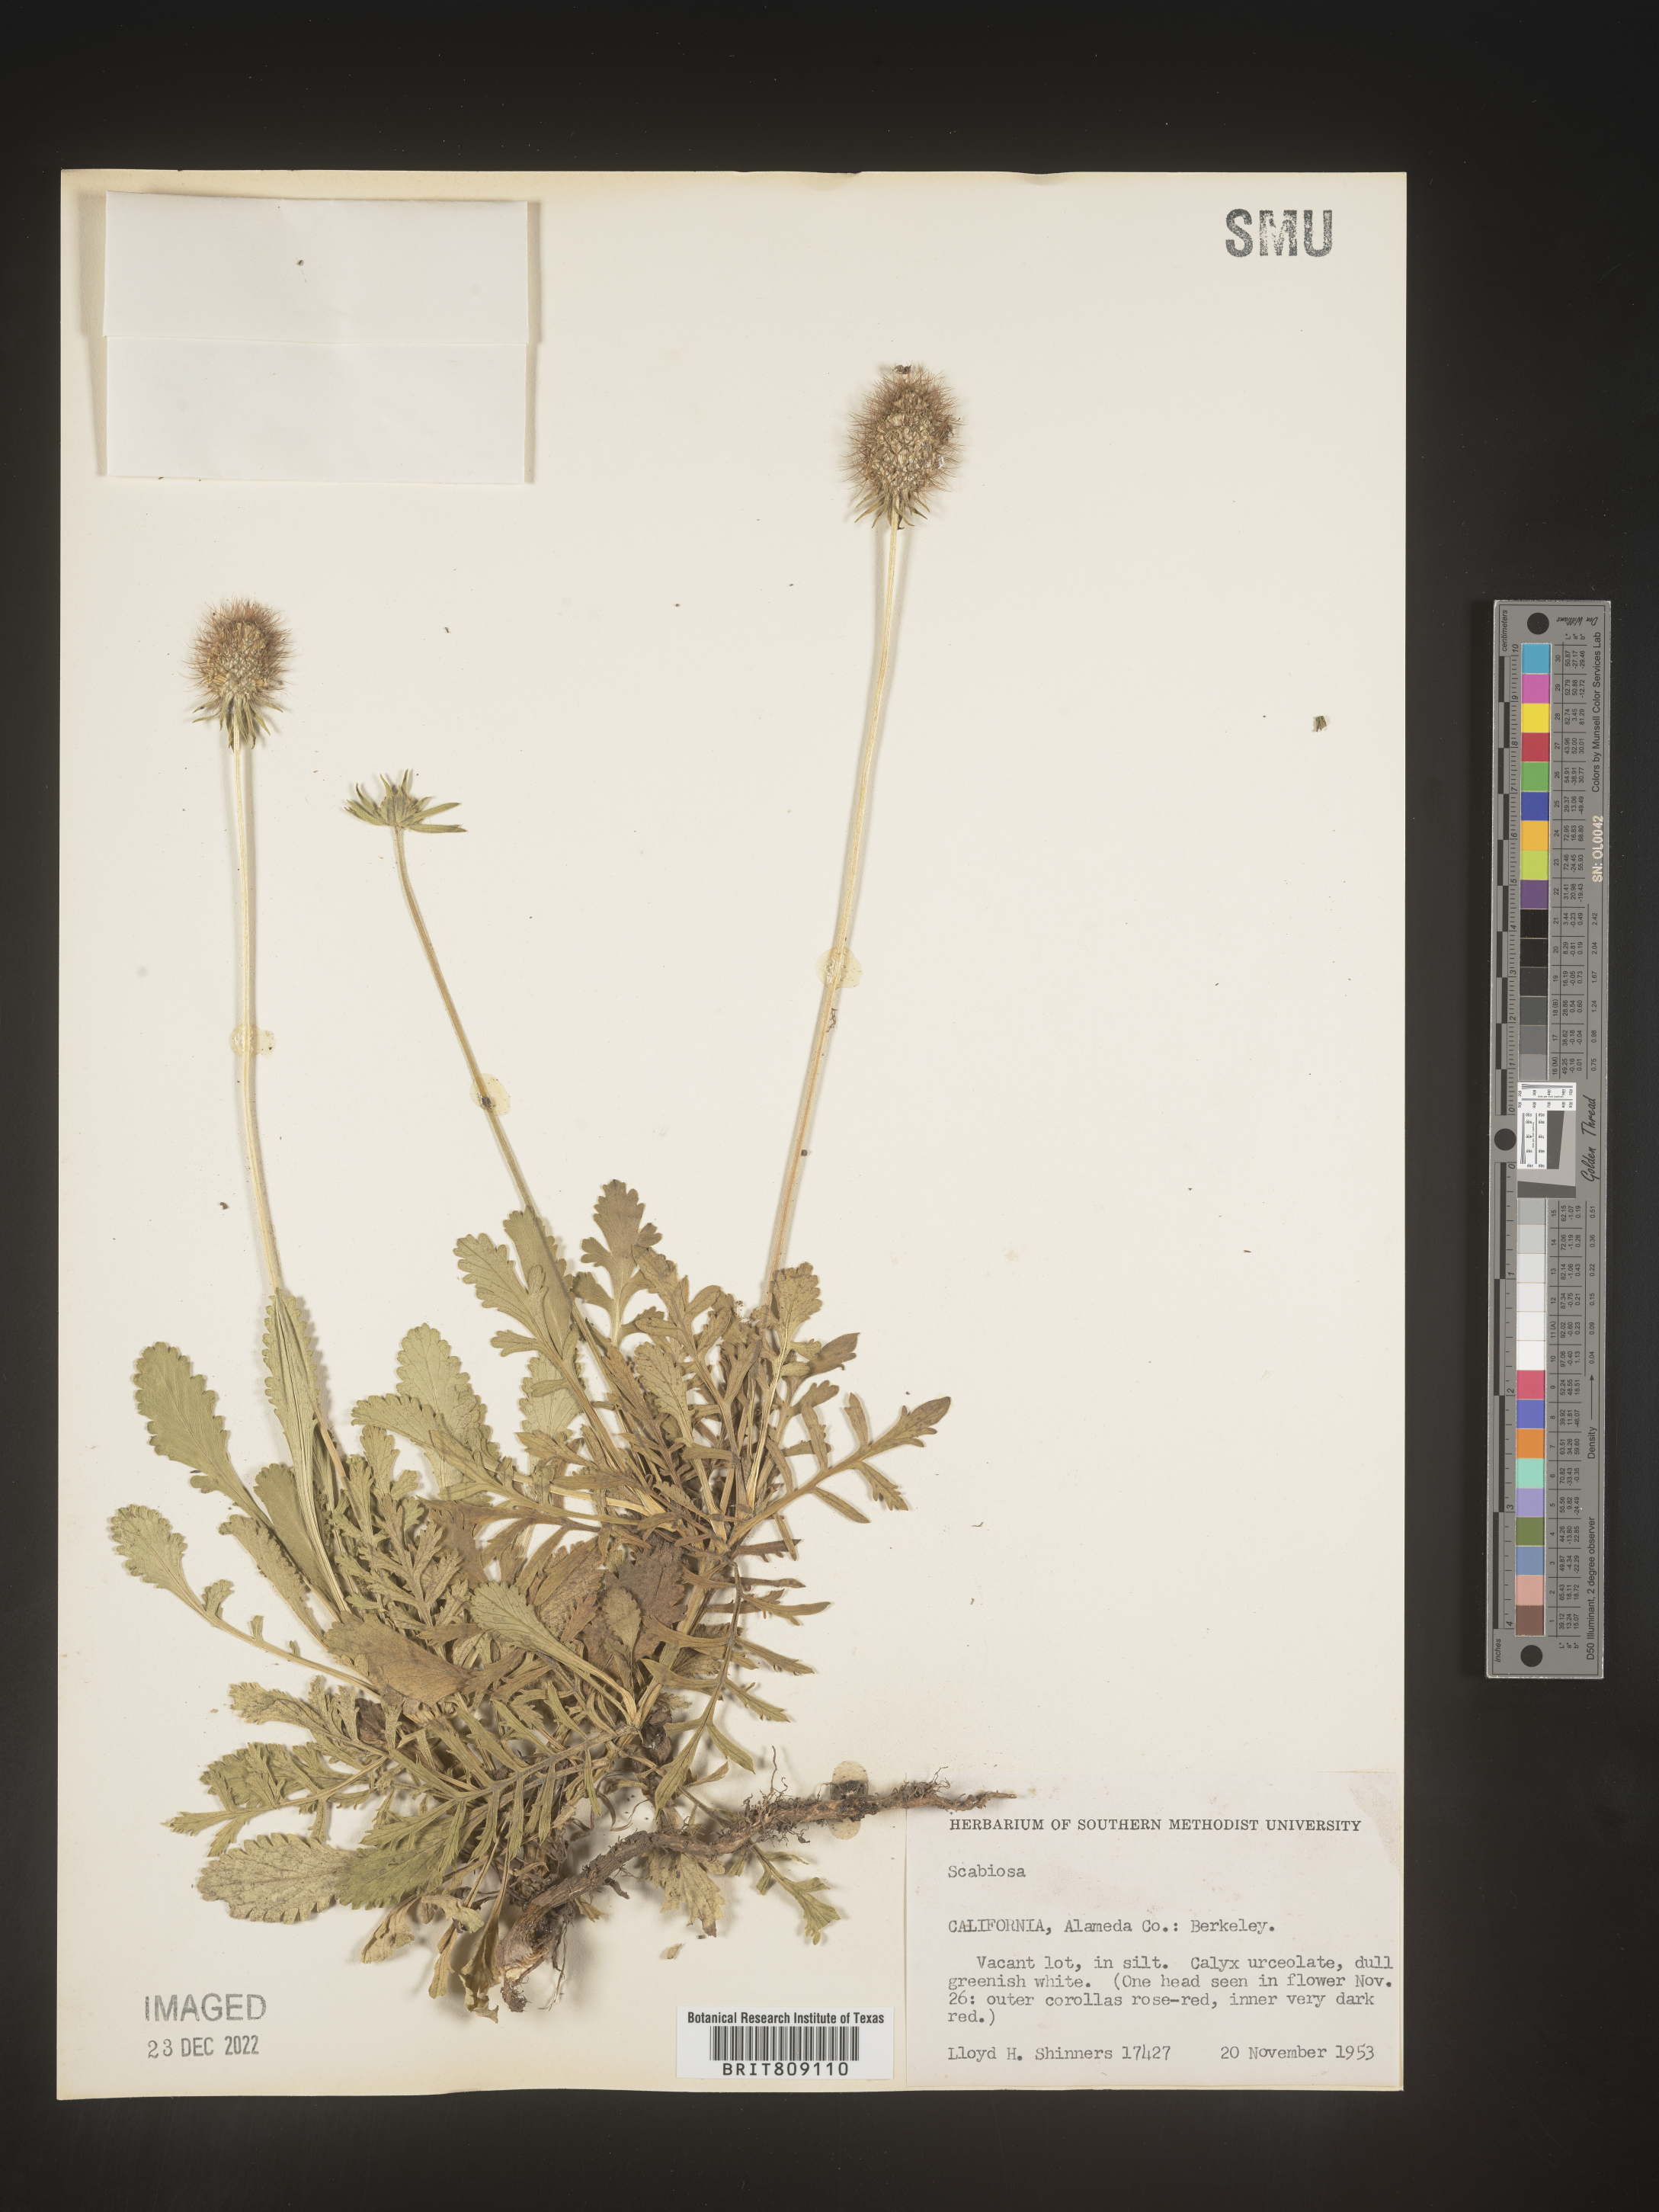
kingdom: Plantae
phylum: Tracheophyta
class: Magnoliopsida
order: Dipsacales
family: Caprifoliaceae
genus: Scabiosa
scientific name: Scabiosa
